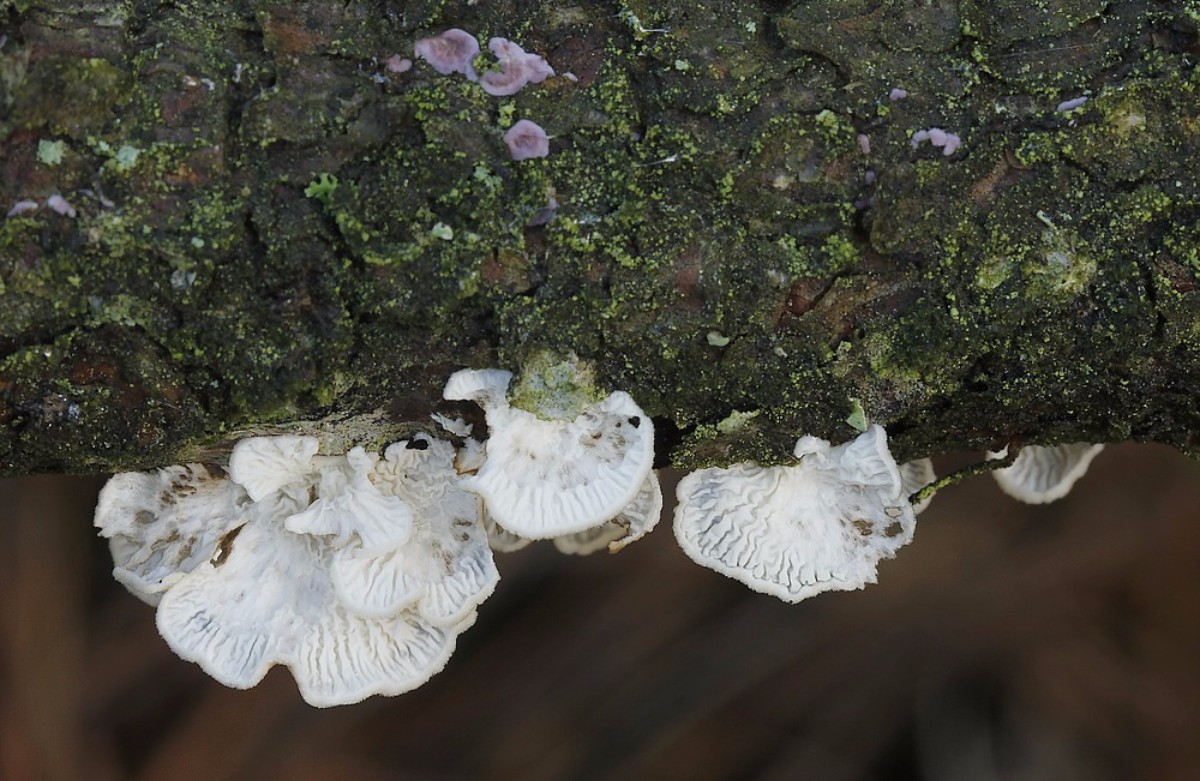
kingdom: Fungi
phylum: Basidiomycota
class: Agaricomycetes
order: Amylocorticiales
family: Amylocorticiaceae
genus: Plicaturopsis
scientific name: Plicaturopsis crispa
